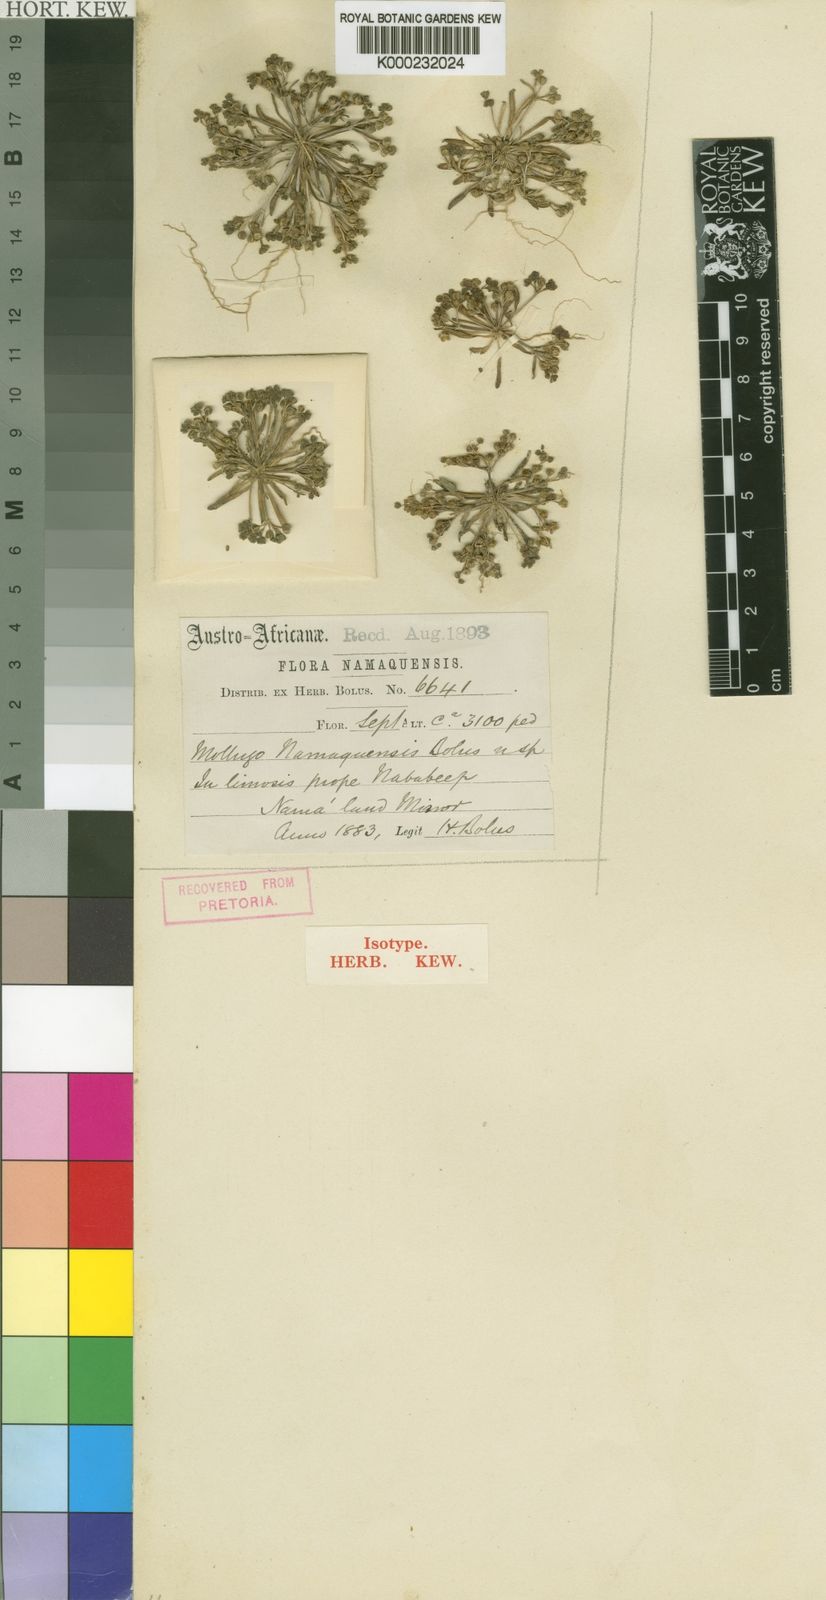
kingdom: Plantae
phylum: Tracheophyta
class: Magnoliopsida
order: Caryophyllales
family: Molluginaceae
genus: Mollugo
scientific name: Mollugo
